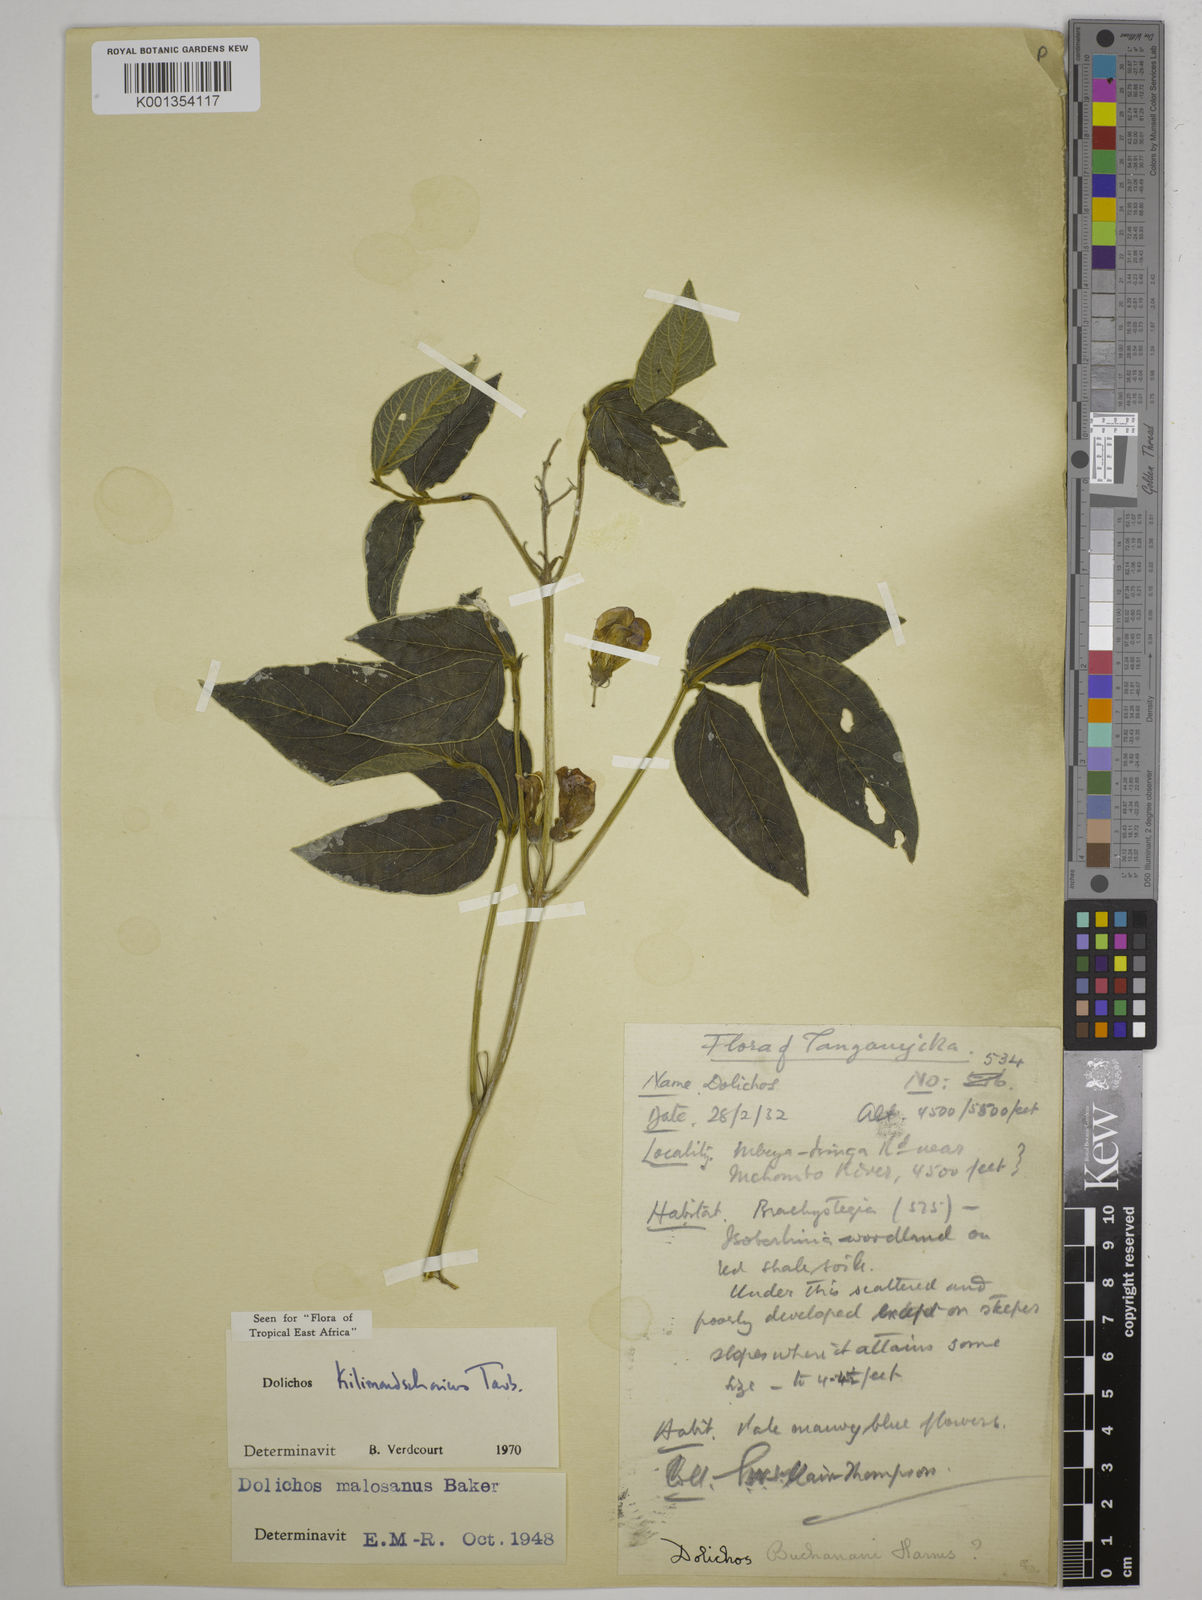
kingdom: Plantae
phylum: Tracheophyta
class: Magnoliopsida
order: Fabales
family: Fabaceae
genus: Dolichos
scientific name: Dolichos kilimandscharicus
